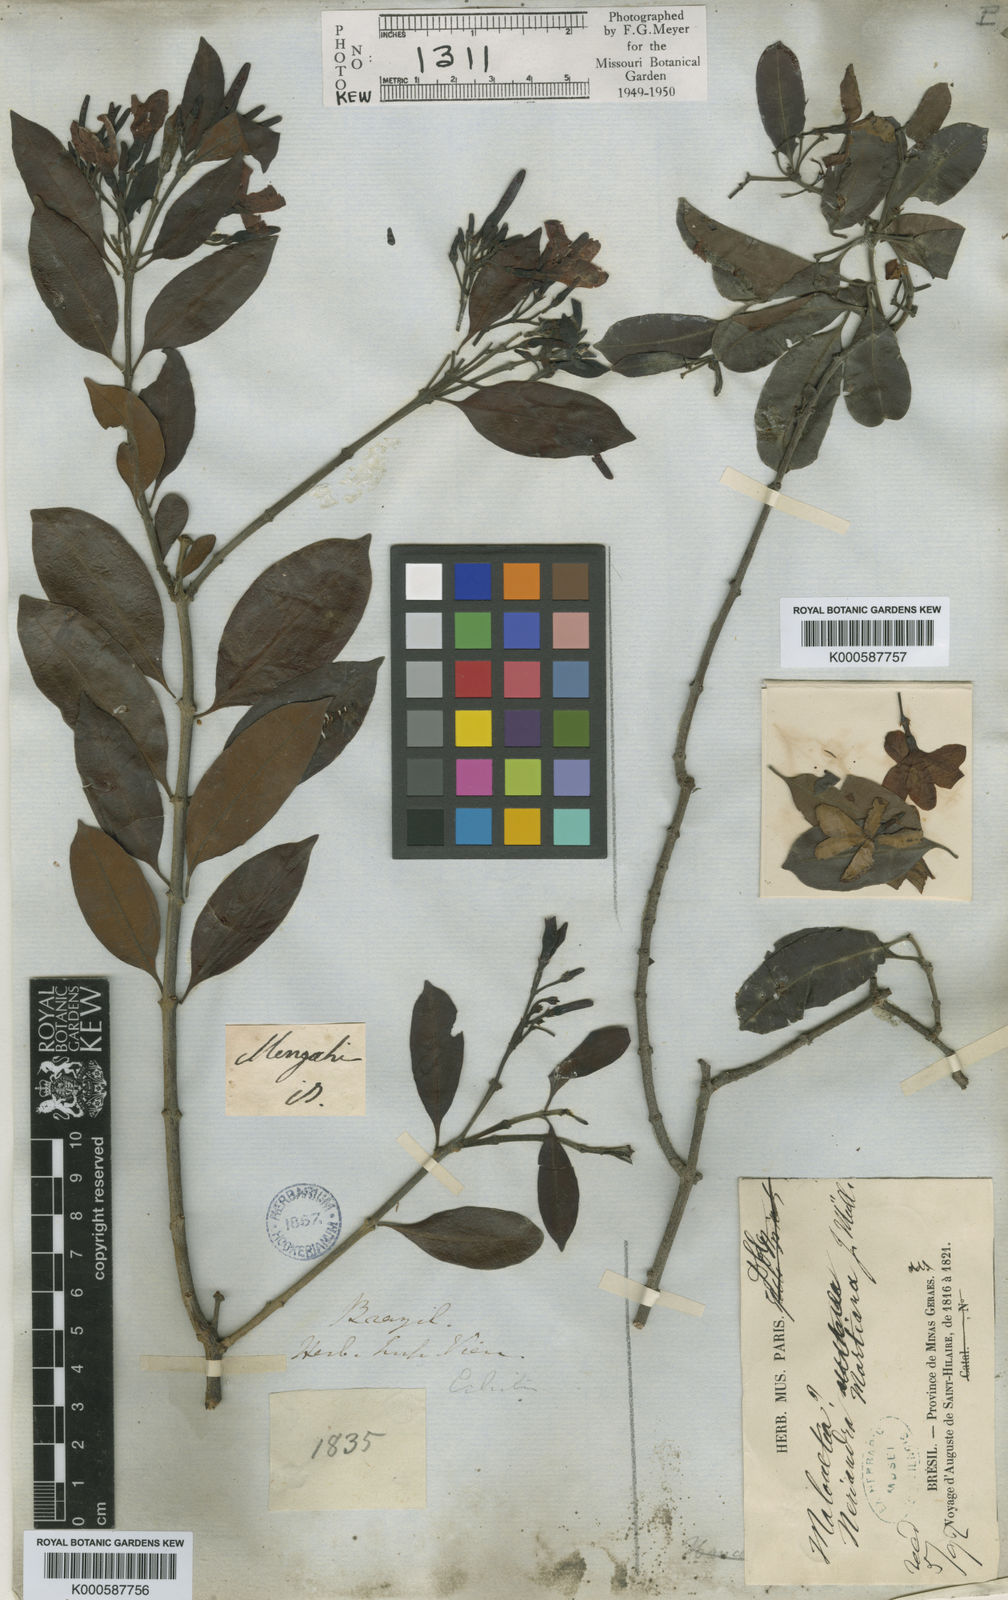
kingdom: Plantae
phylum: Tracheophyta
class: Magnoliopsida
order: Gentianales
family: Apocynaceae
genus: Skytanthus
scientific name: Skytanthus
